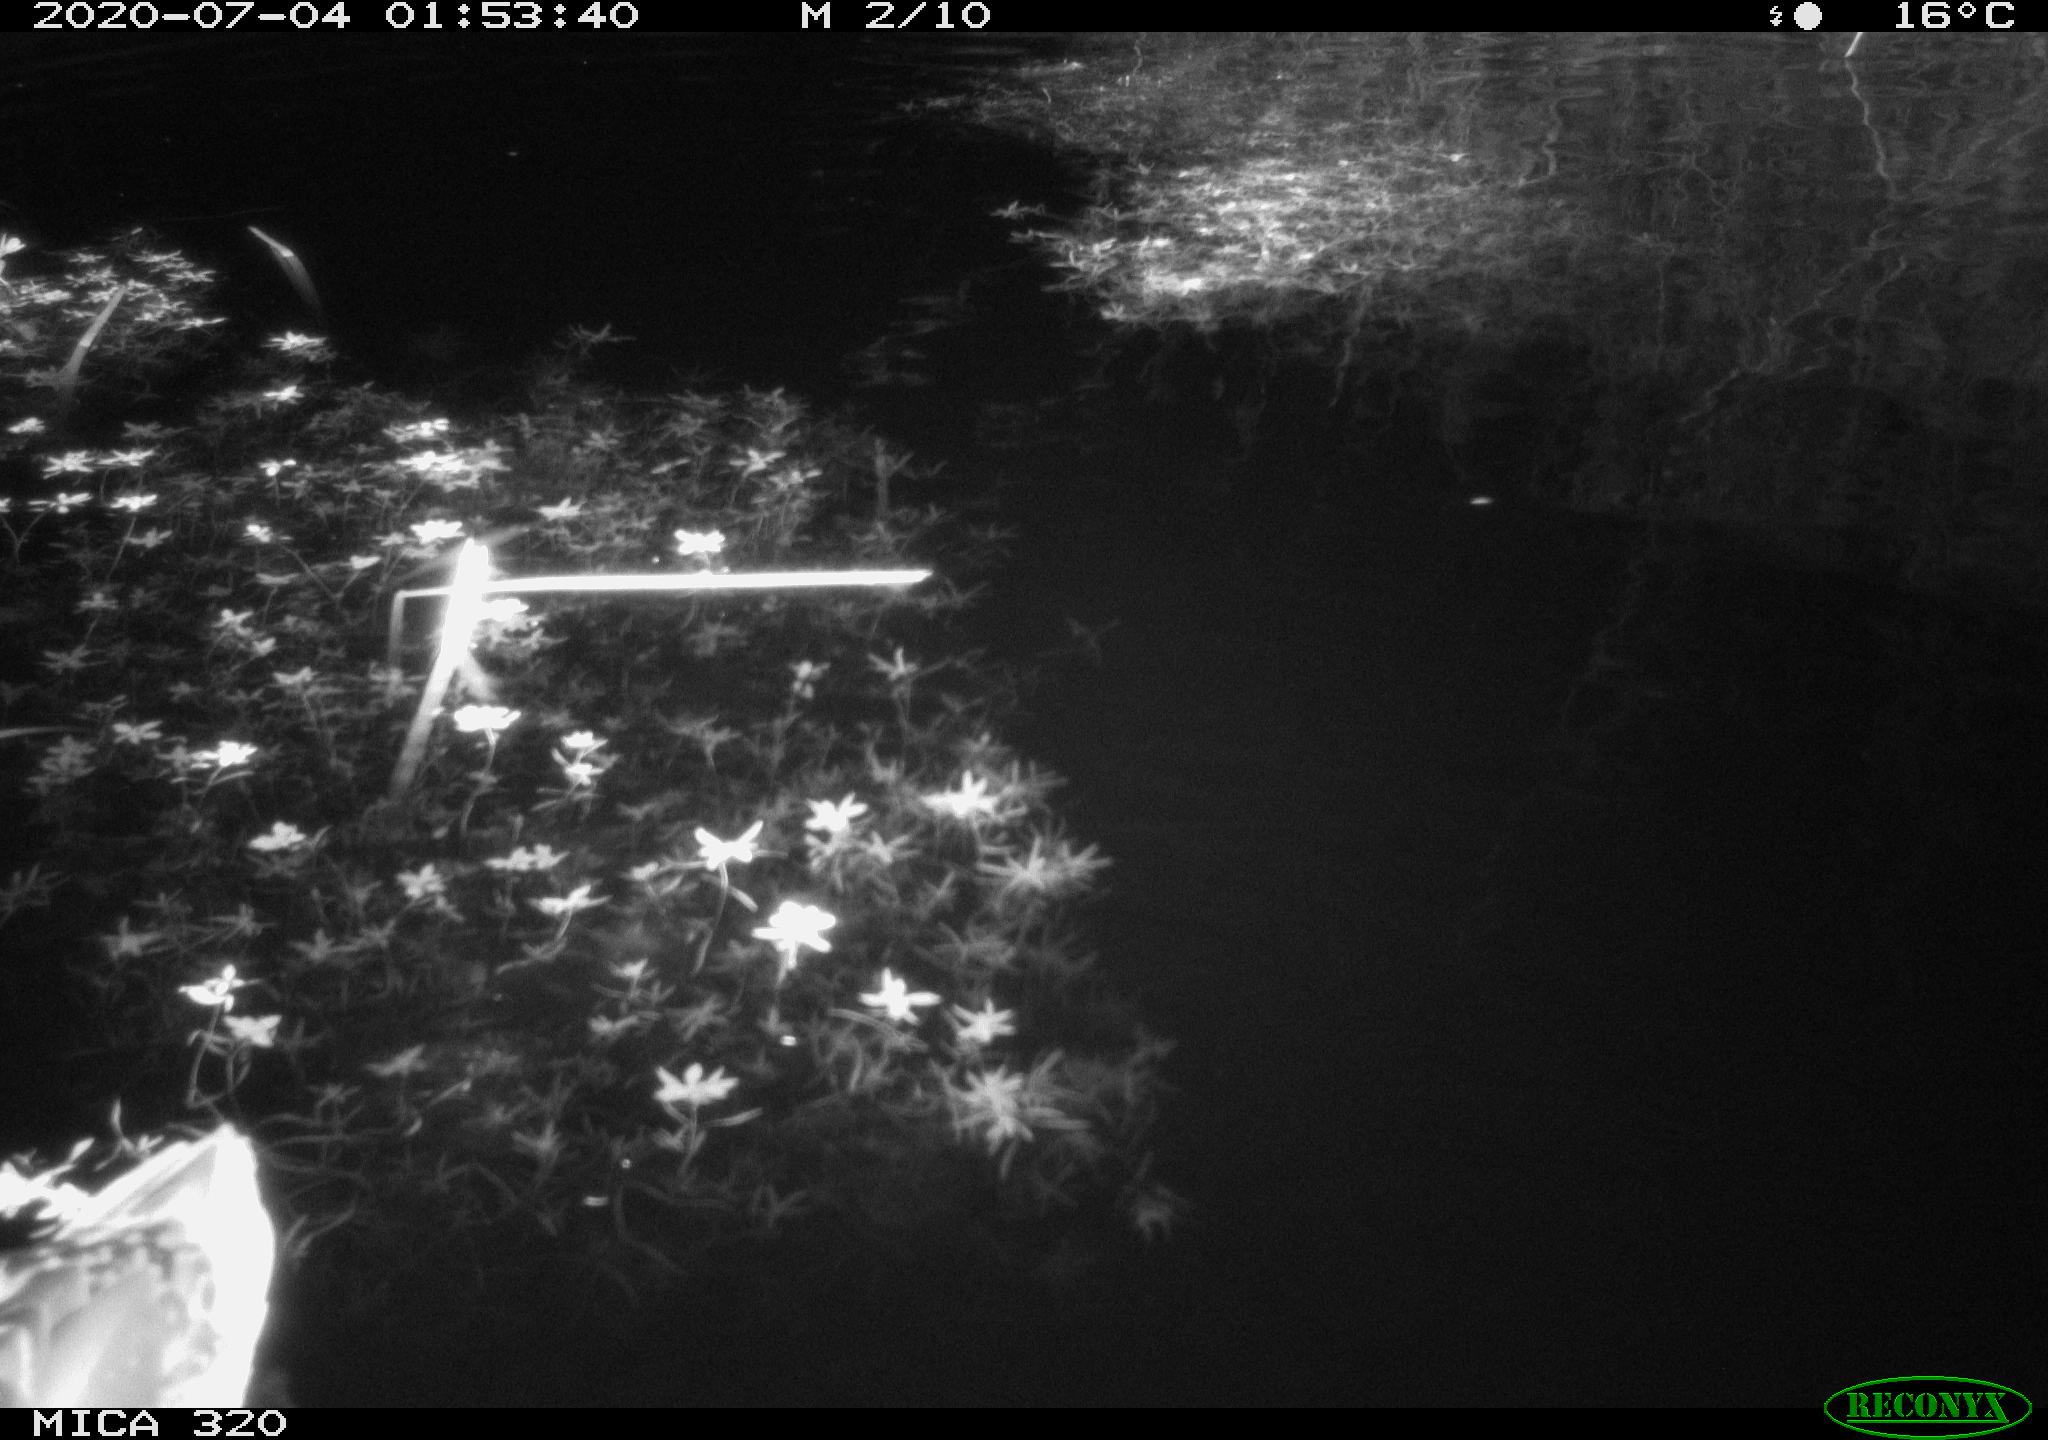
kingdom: Animalia
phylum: Chordata
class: Aves
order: Anseriformes
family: Anatidae
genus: Anas
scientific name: Anas platyrhynchos
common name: Mallard
